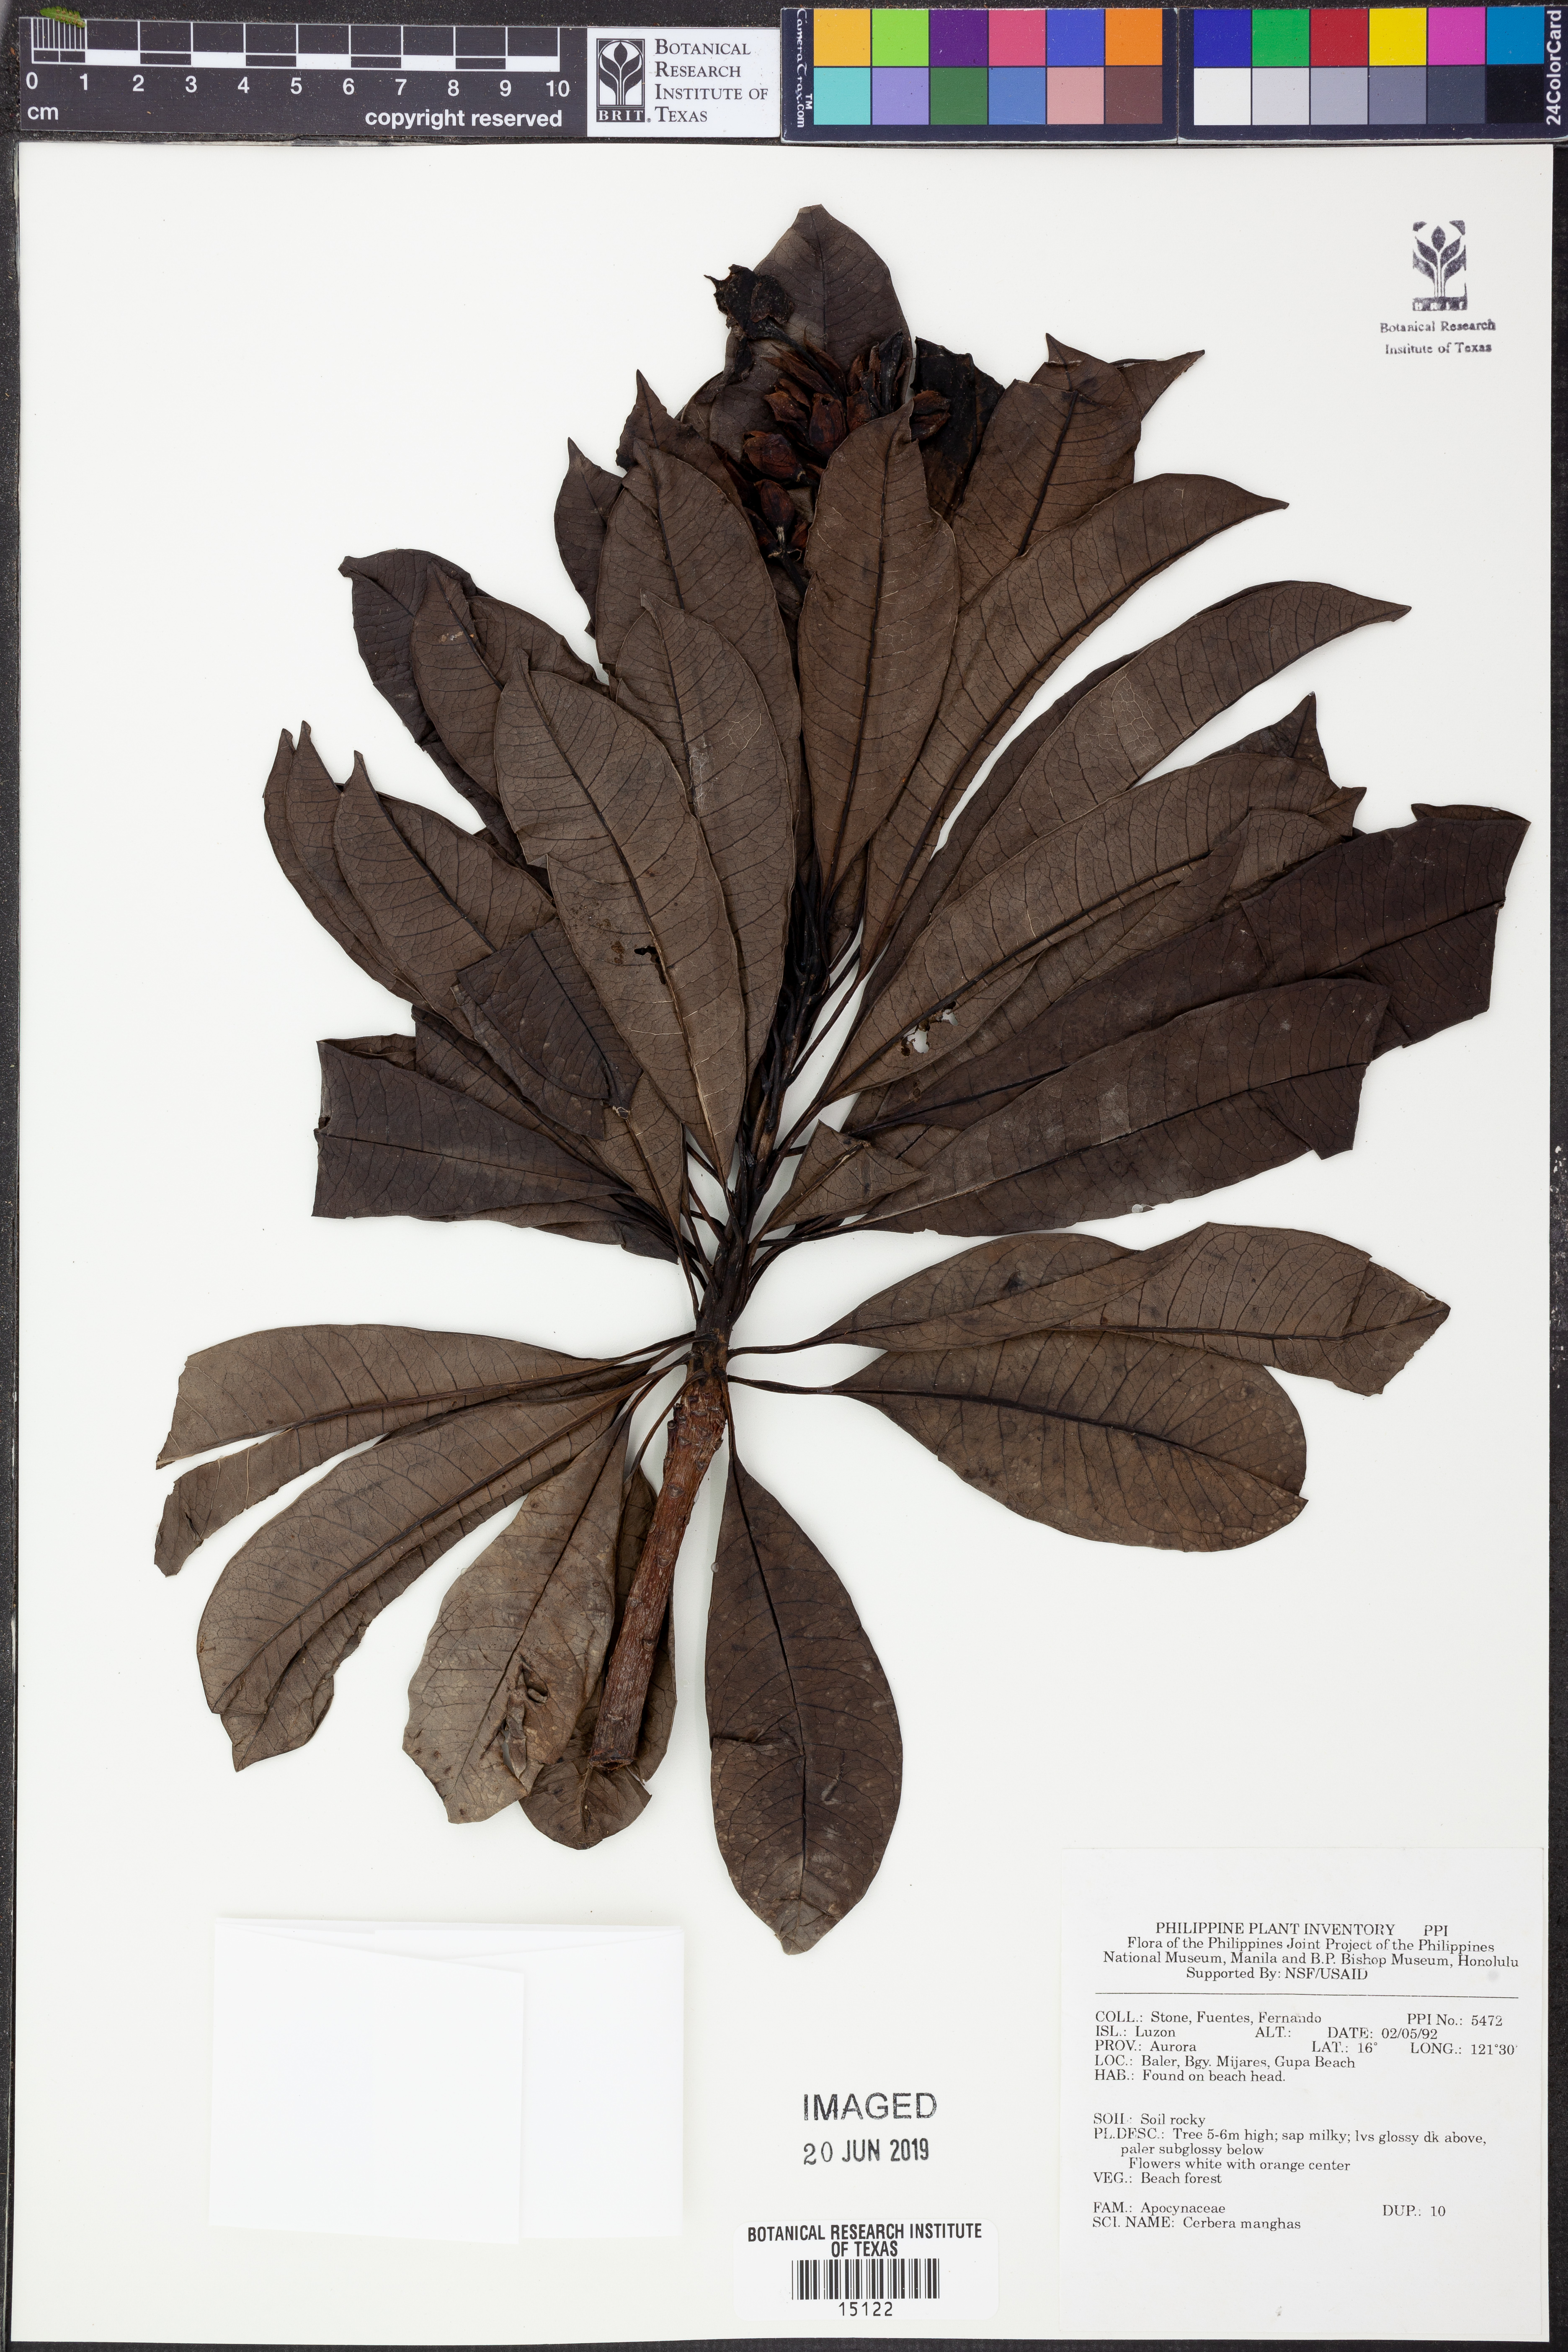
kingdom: Plantae
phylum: Tracheophyta
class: Magnoliopsida
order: Gentianales
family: Apocynaceae
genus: Cerbera
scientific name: Cerbera manghas
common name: Reva
